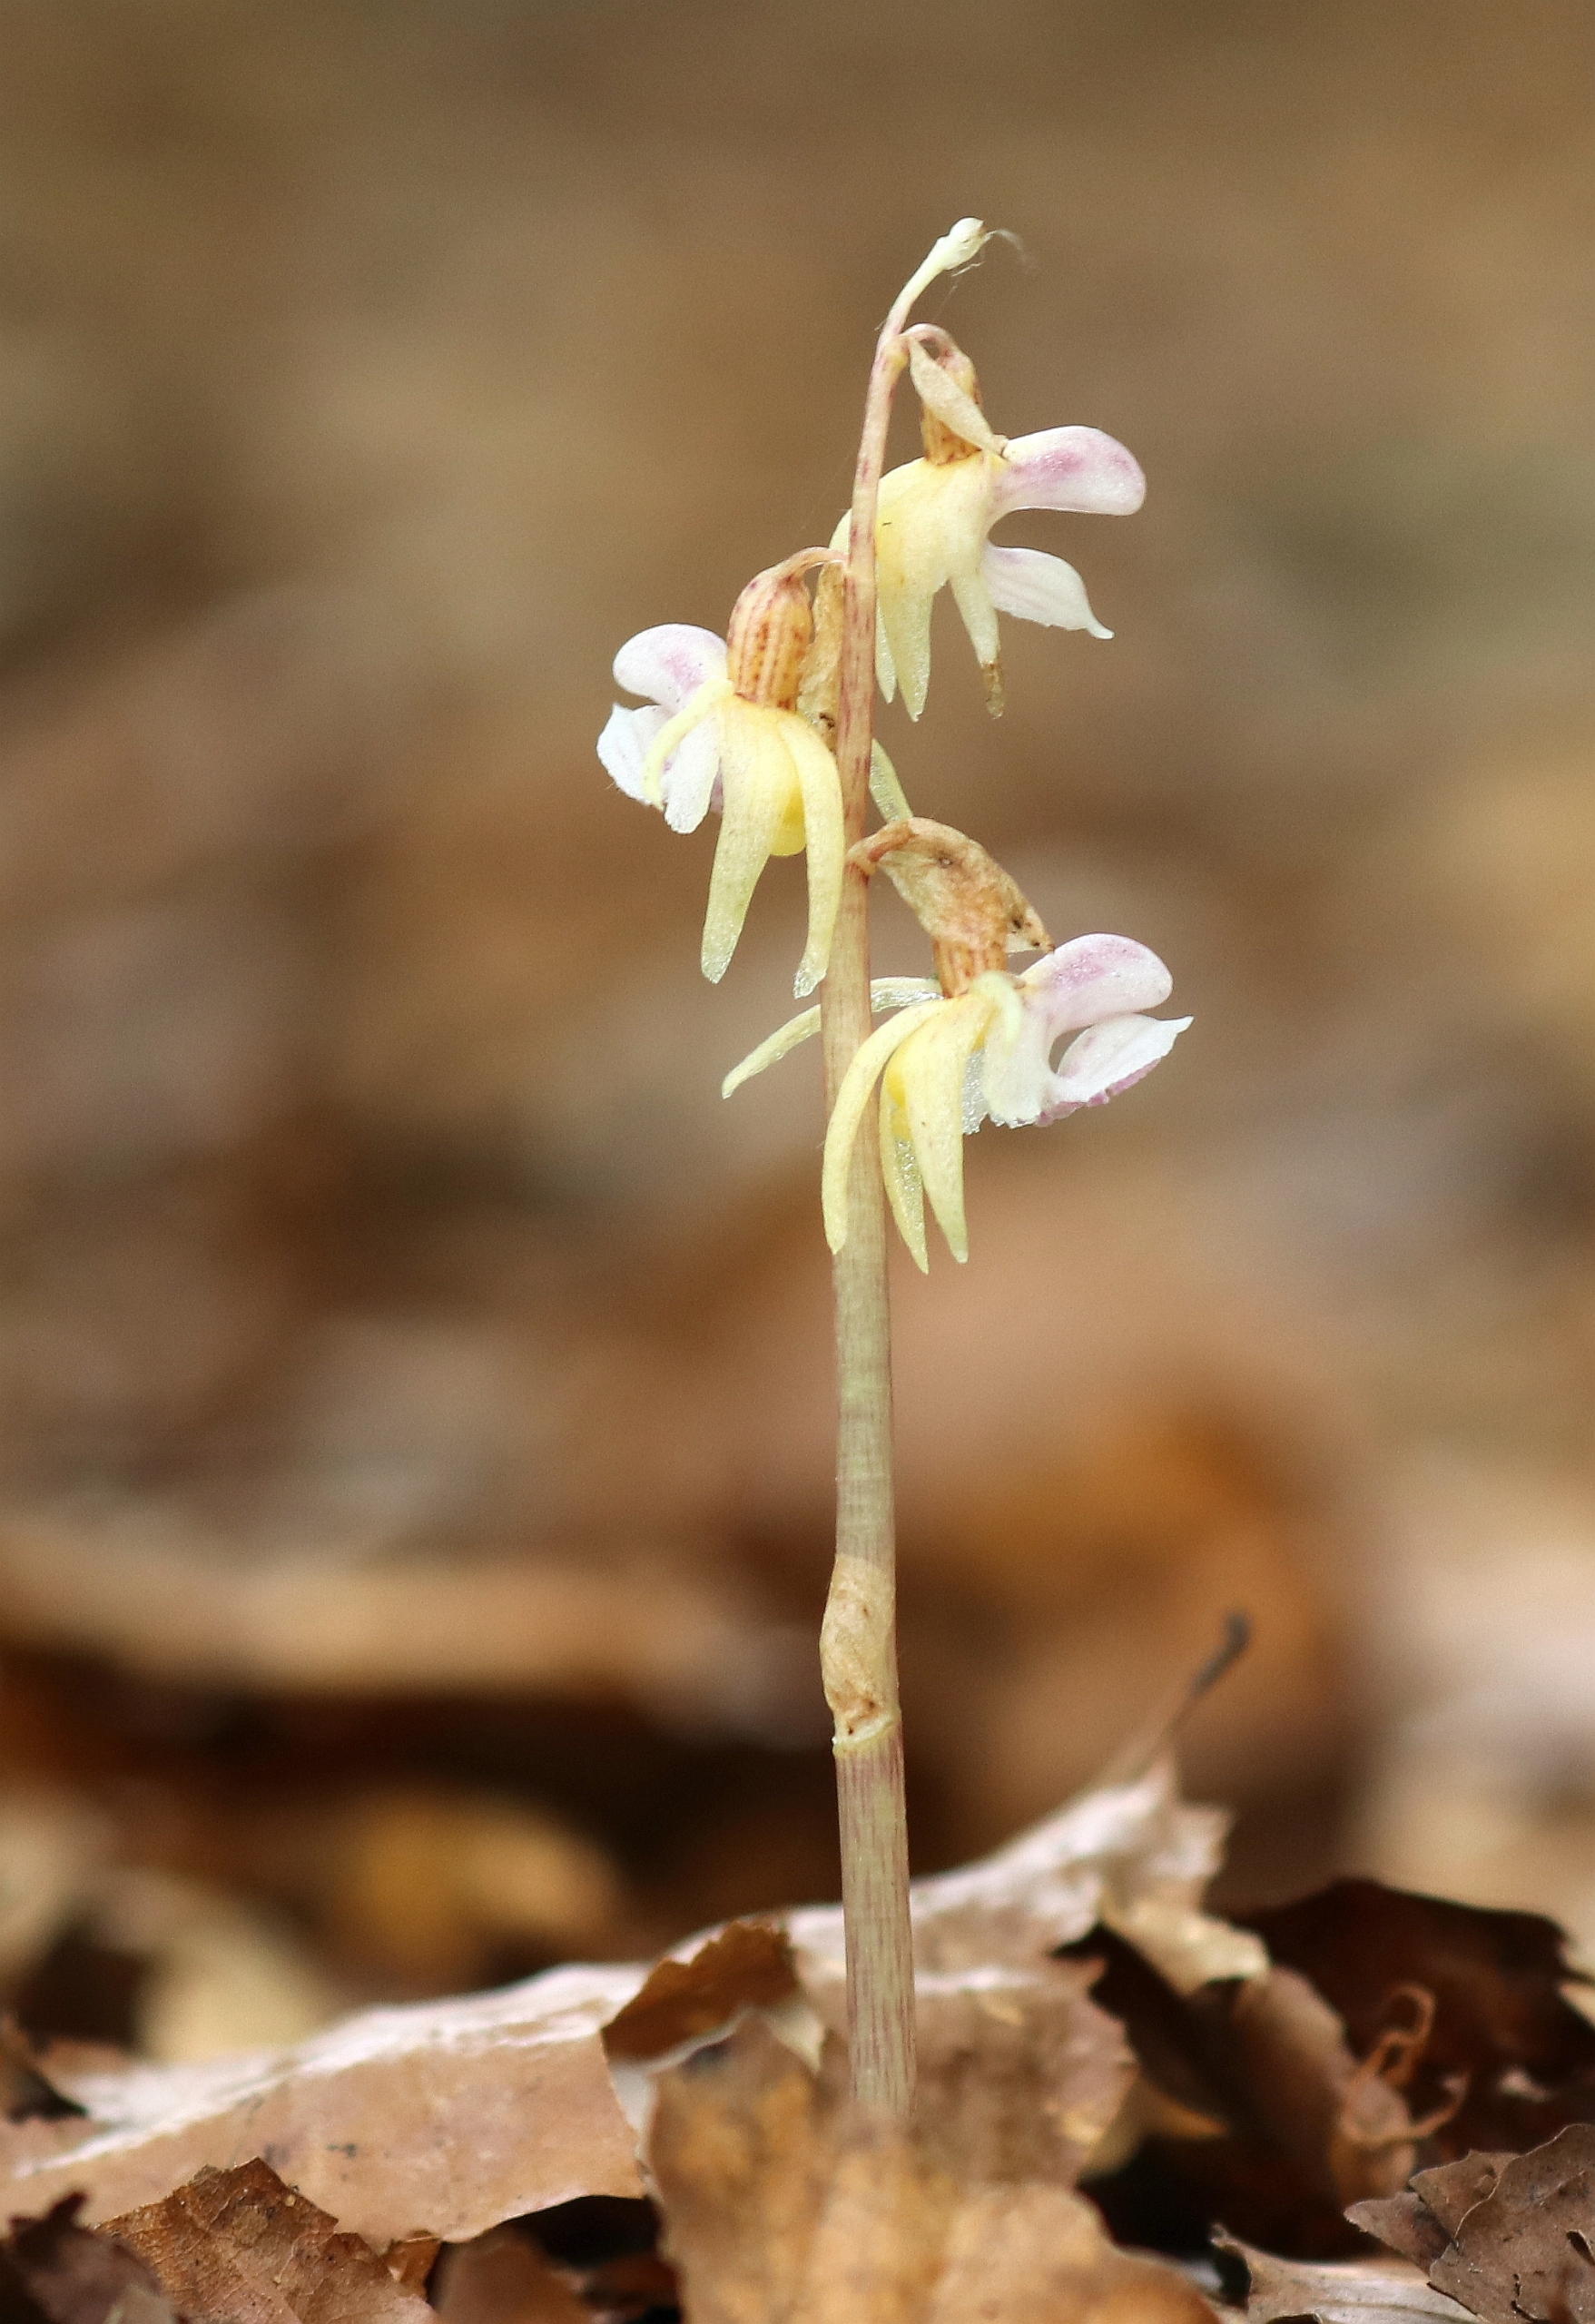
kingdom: Plantae
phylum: Tracheophyta
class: Liliopsida
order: Asparagales
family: Orchidaceae
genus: Epipogium
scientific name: Epipogium aphyllum
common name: Knælæbe
